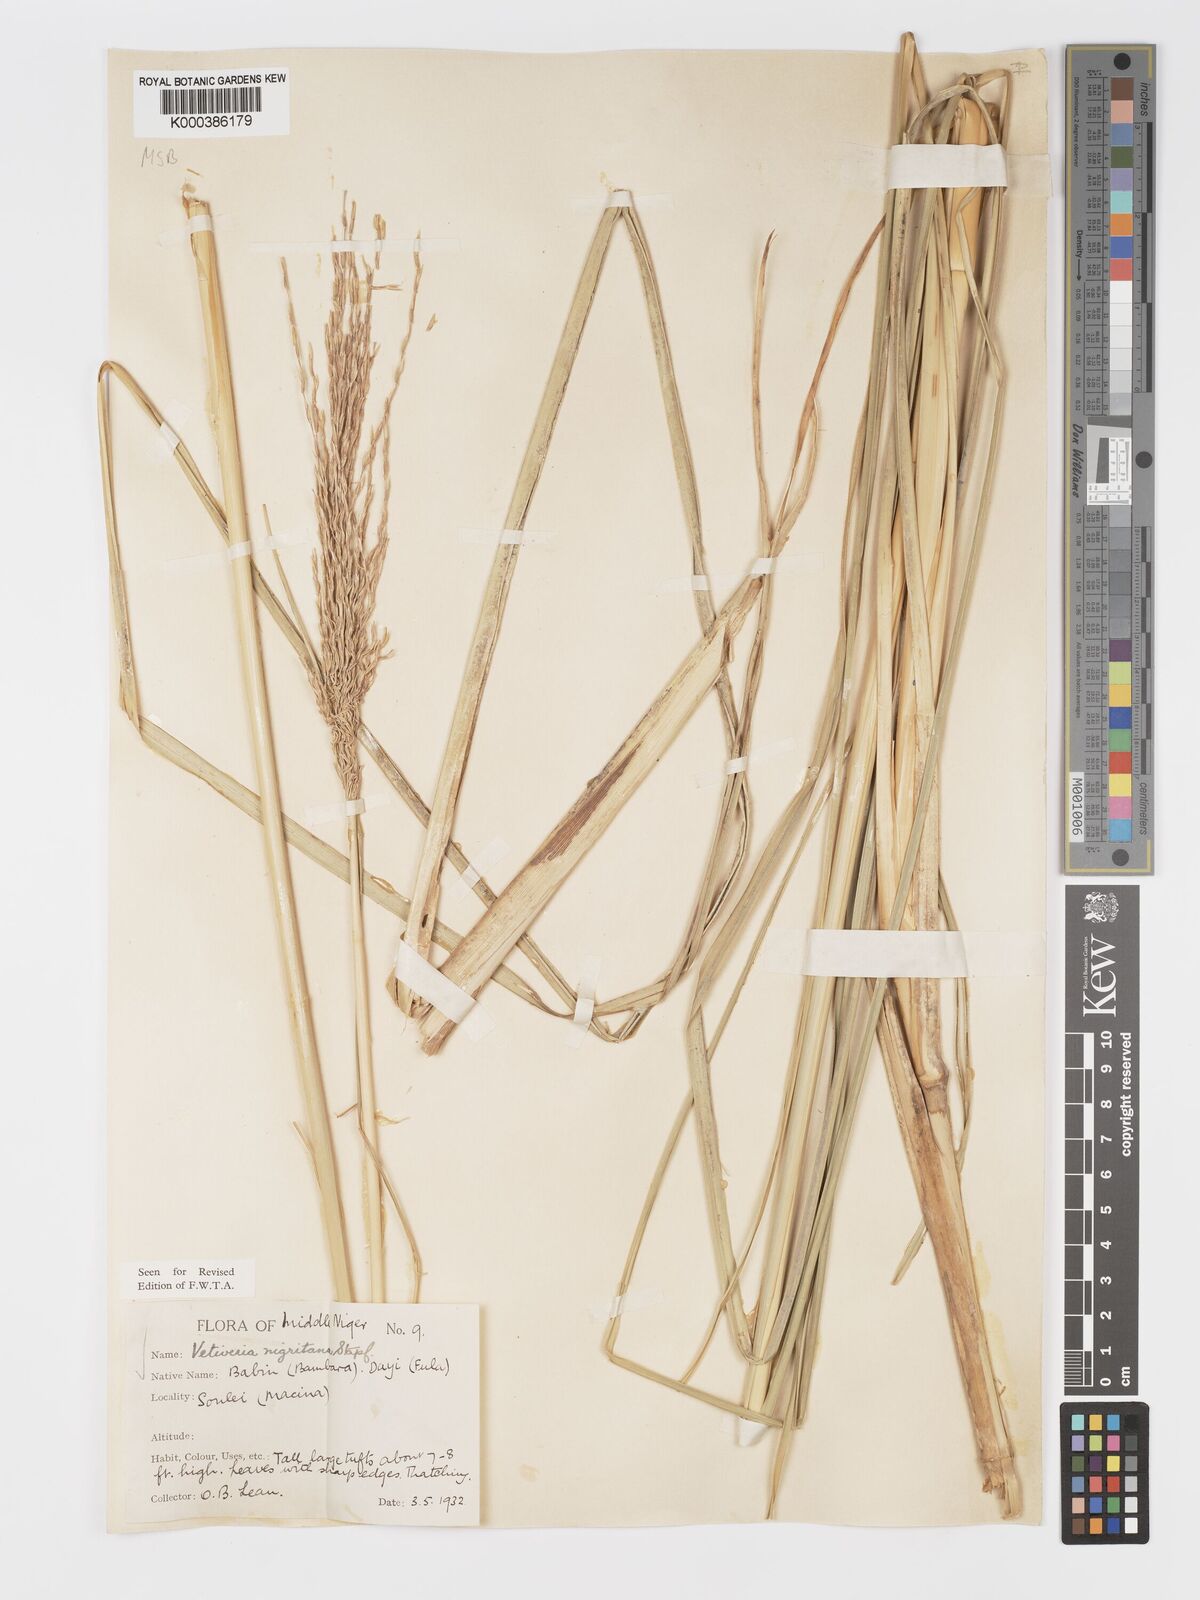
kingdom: Plantae
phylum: Tracheophyta
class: Liliopsida
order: Poales
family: Poaceae
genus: Chrysopogon
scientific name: Chrysopogon nigritanus
